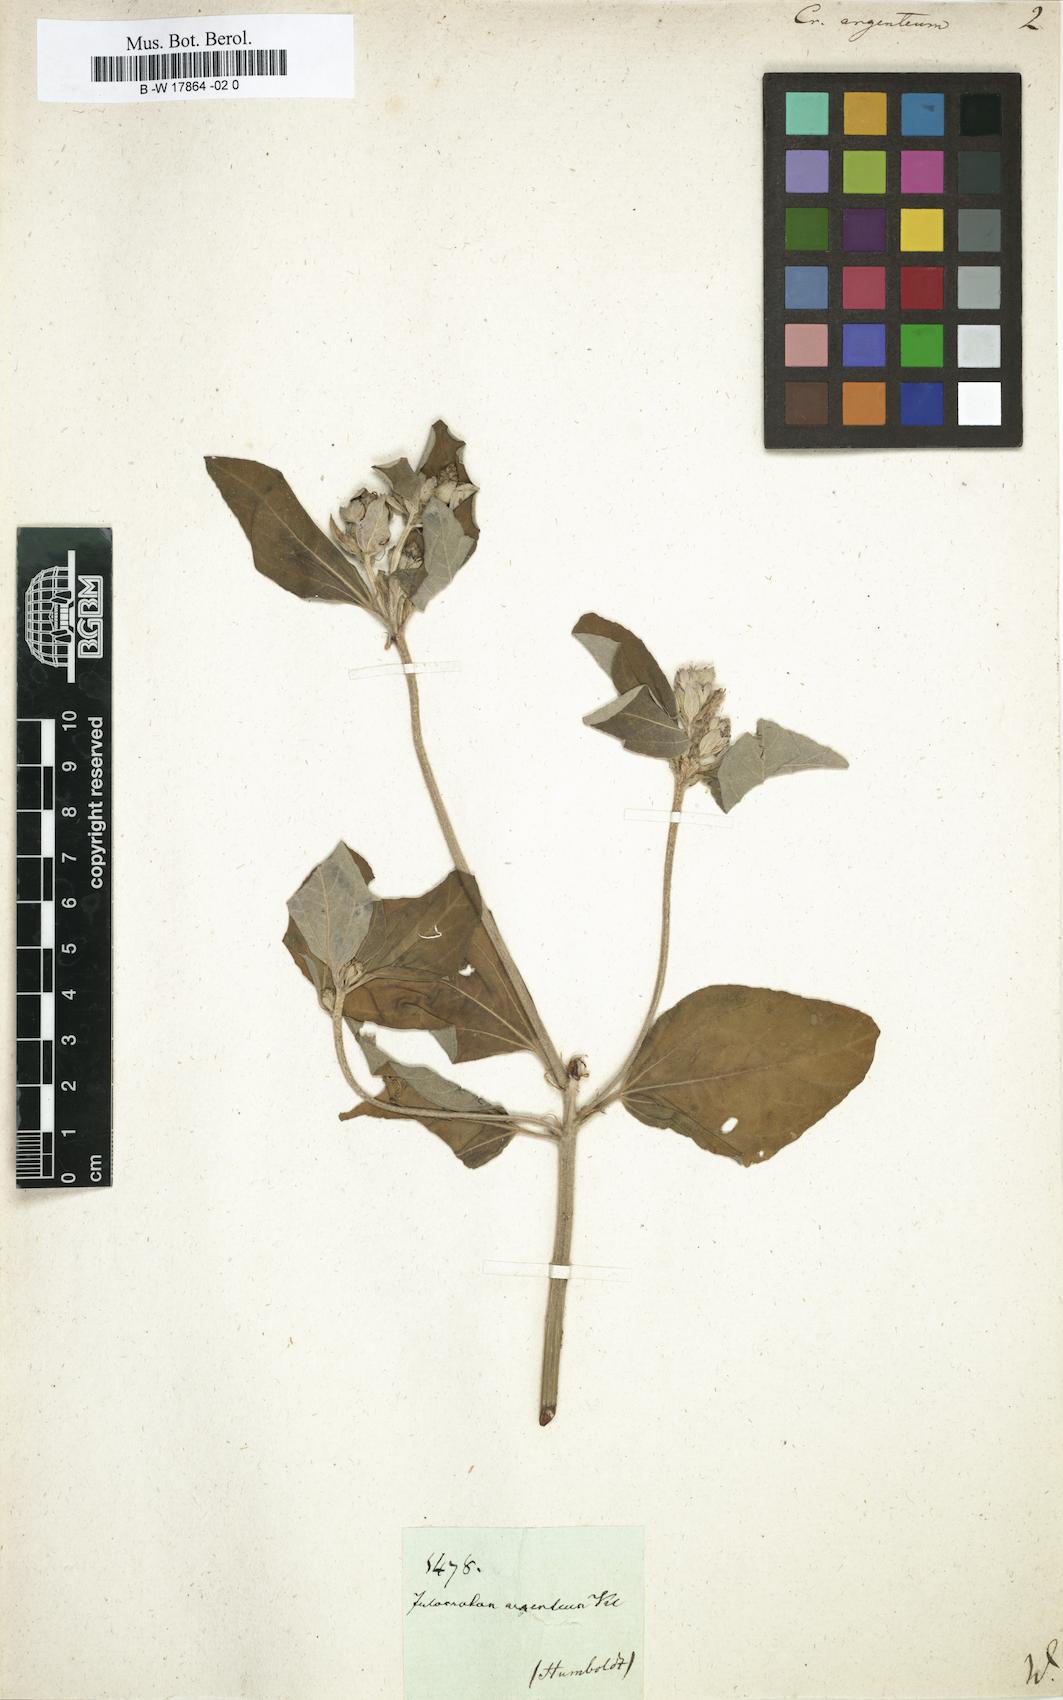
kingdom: Plantae
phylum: Tracheophyta
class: Magnoliopsida
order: Malpighiales
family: Euphorbiaceae
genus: Croton
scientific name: Croton argenteus
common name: Silver july croton
